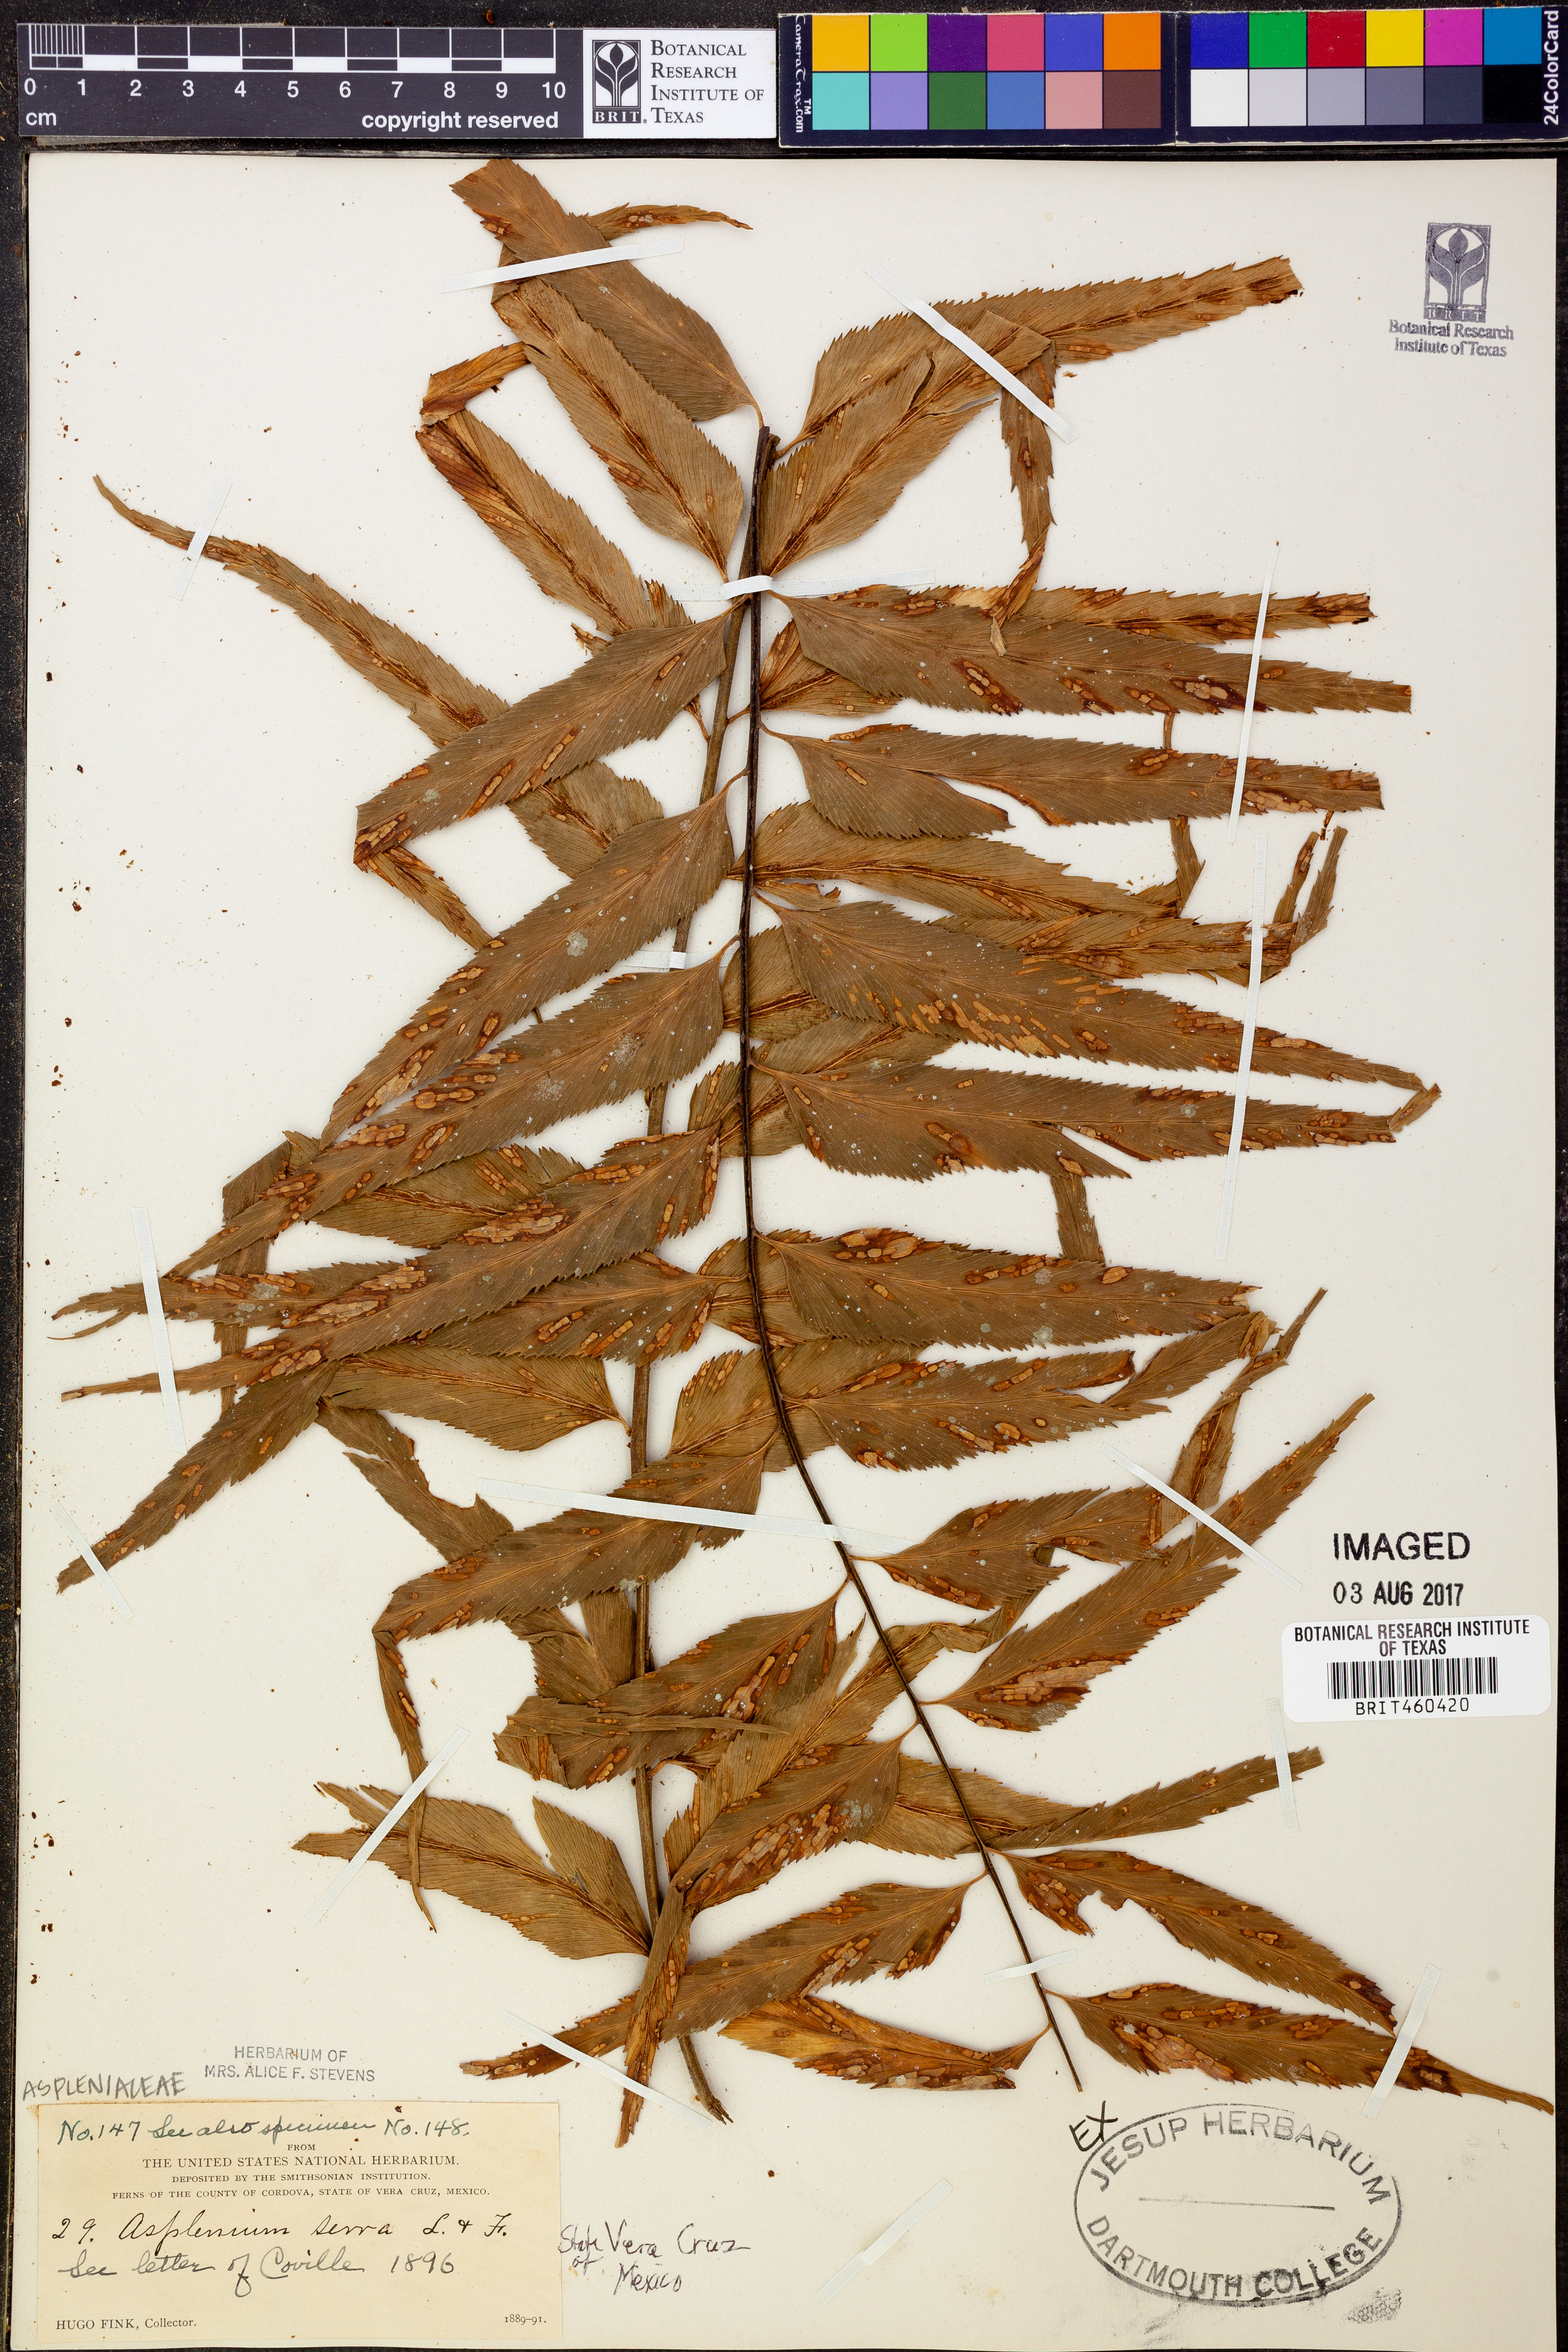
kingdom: Plantae
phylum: Tracheophyta
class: Polypodiopsida
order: Polypodiales
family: Aspleniaceae
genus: Asplenium
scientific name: Asplenium serra
